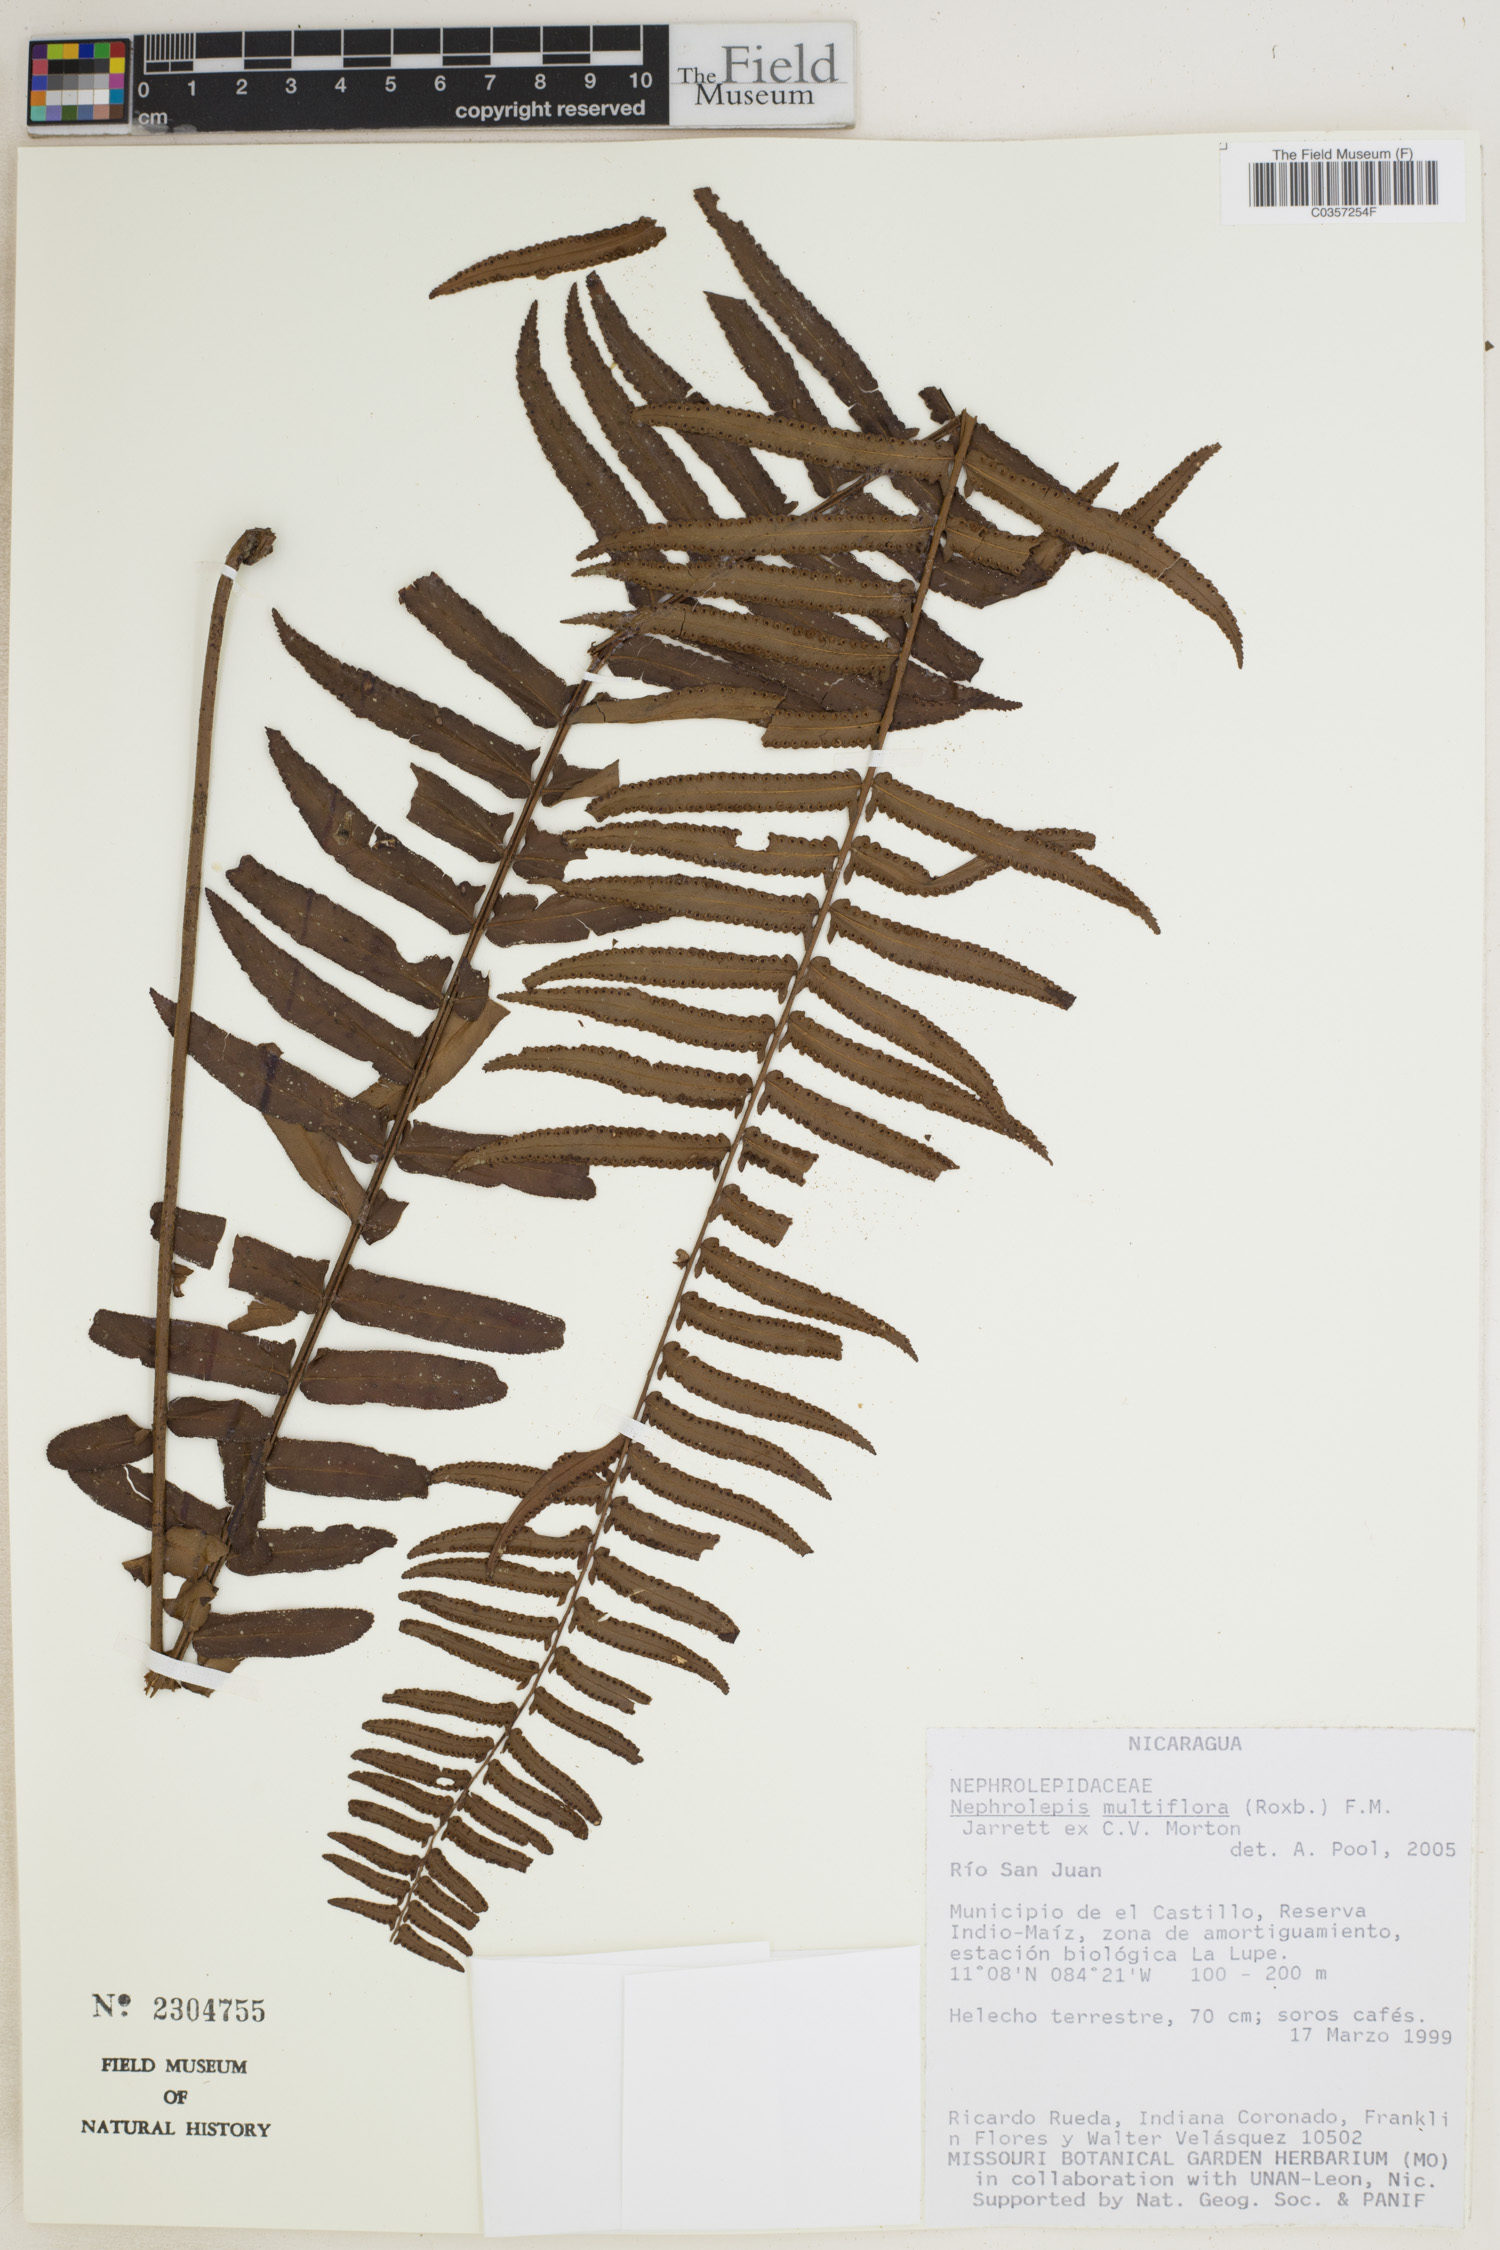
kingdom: Plantae
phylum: Tracheophyta
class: Polypodiopsida
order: Polypodiales
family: Nephrolepidaceae
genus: Nephrolepis
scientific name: Nephrolepis brownii
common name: Asian swordfern
